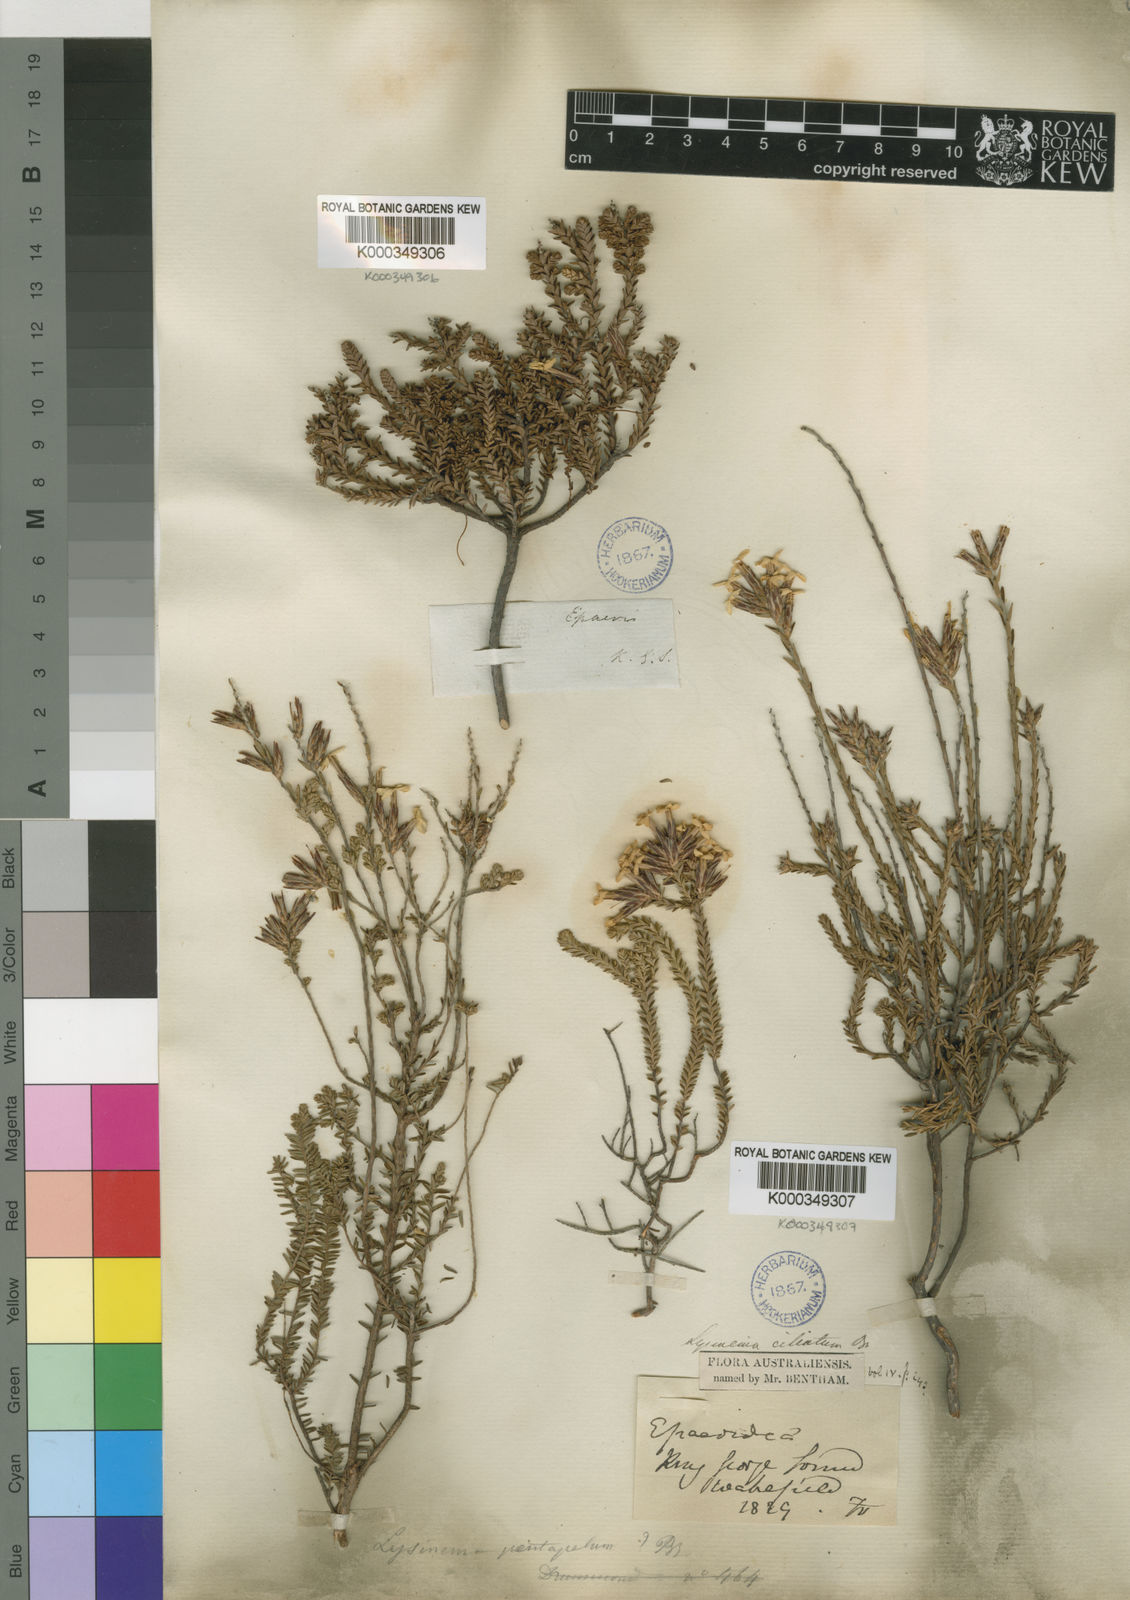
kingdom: Plantae
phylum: Tracheophyta
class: Magnoliopsida
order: Ericales
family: Ericaceae
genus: Lysinema
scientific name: Lysinema ciliatum
